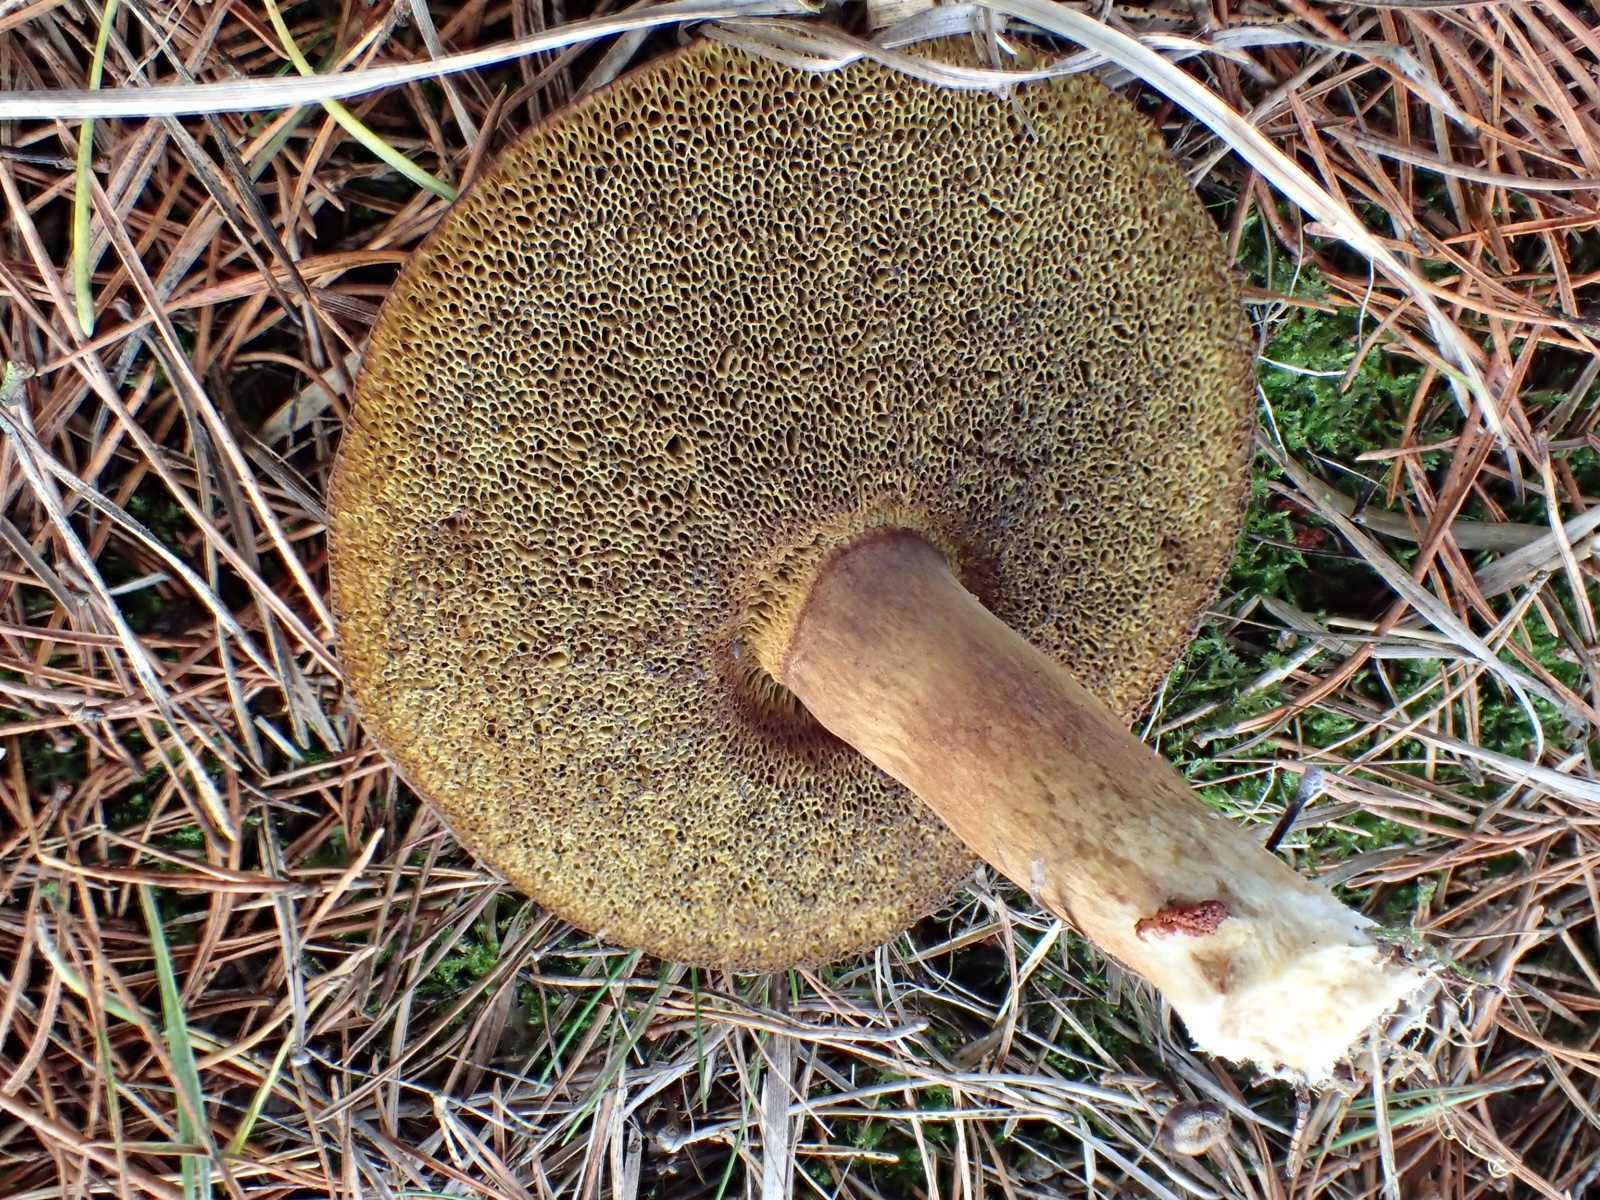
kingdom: Fungi
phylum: Basidiomycota
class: Agaricomycetes
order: Boletales
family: Boletaceae
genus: Imleria
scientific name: Imleria badia
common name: brunstokket rørhat
